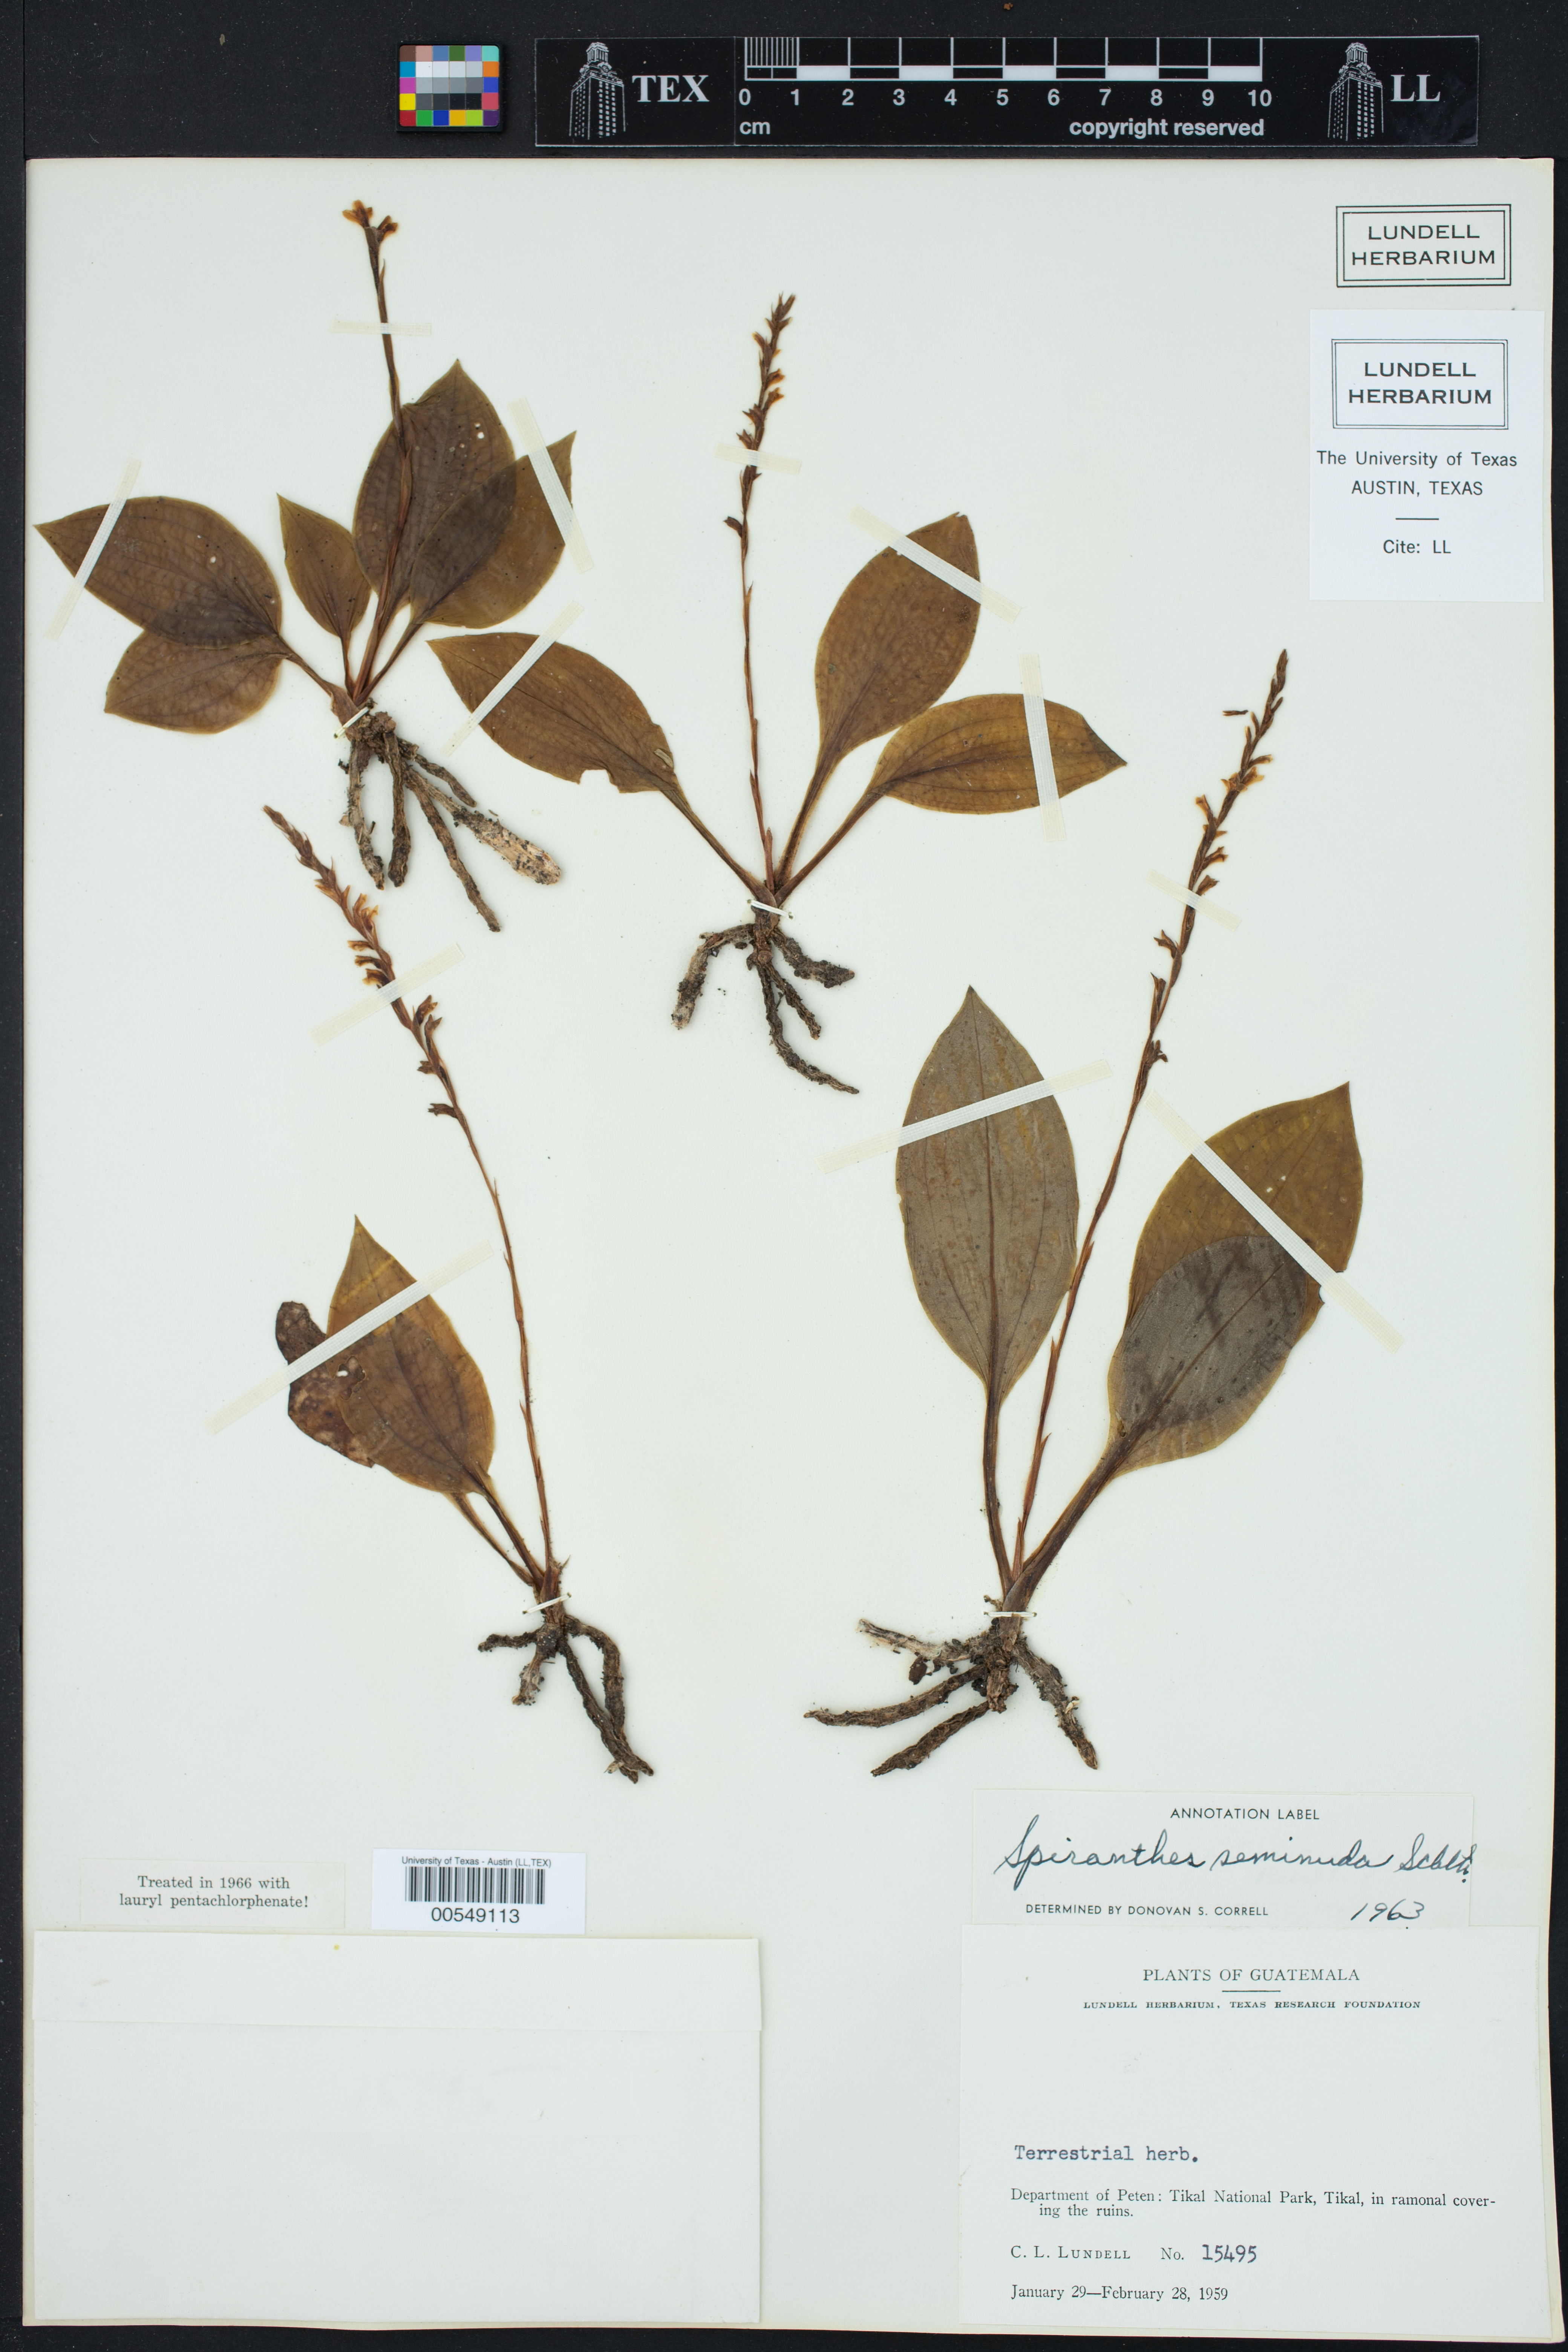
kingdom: Plantae
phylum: Tracheophyta
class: Liliopsida
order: Asparagales
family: Orchidaceae
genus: Kionophyton
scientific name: Kionophyton seminuda
